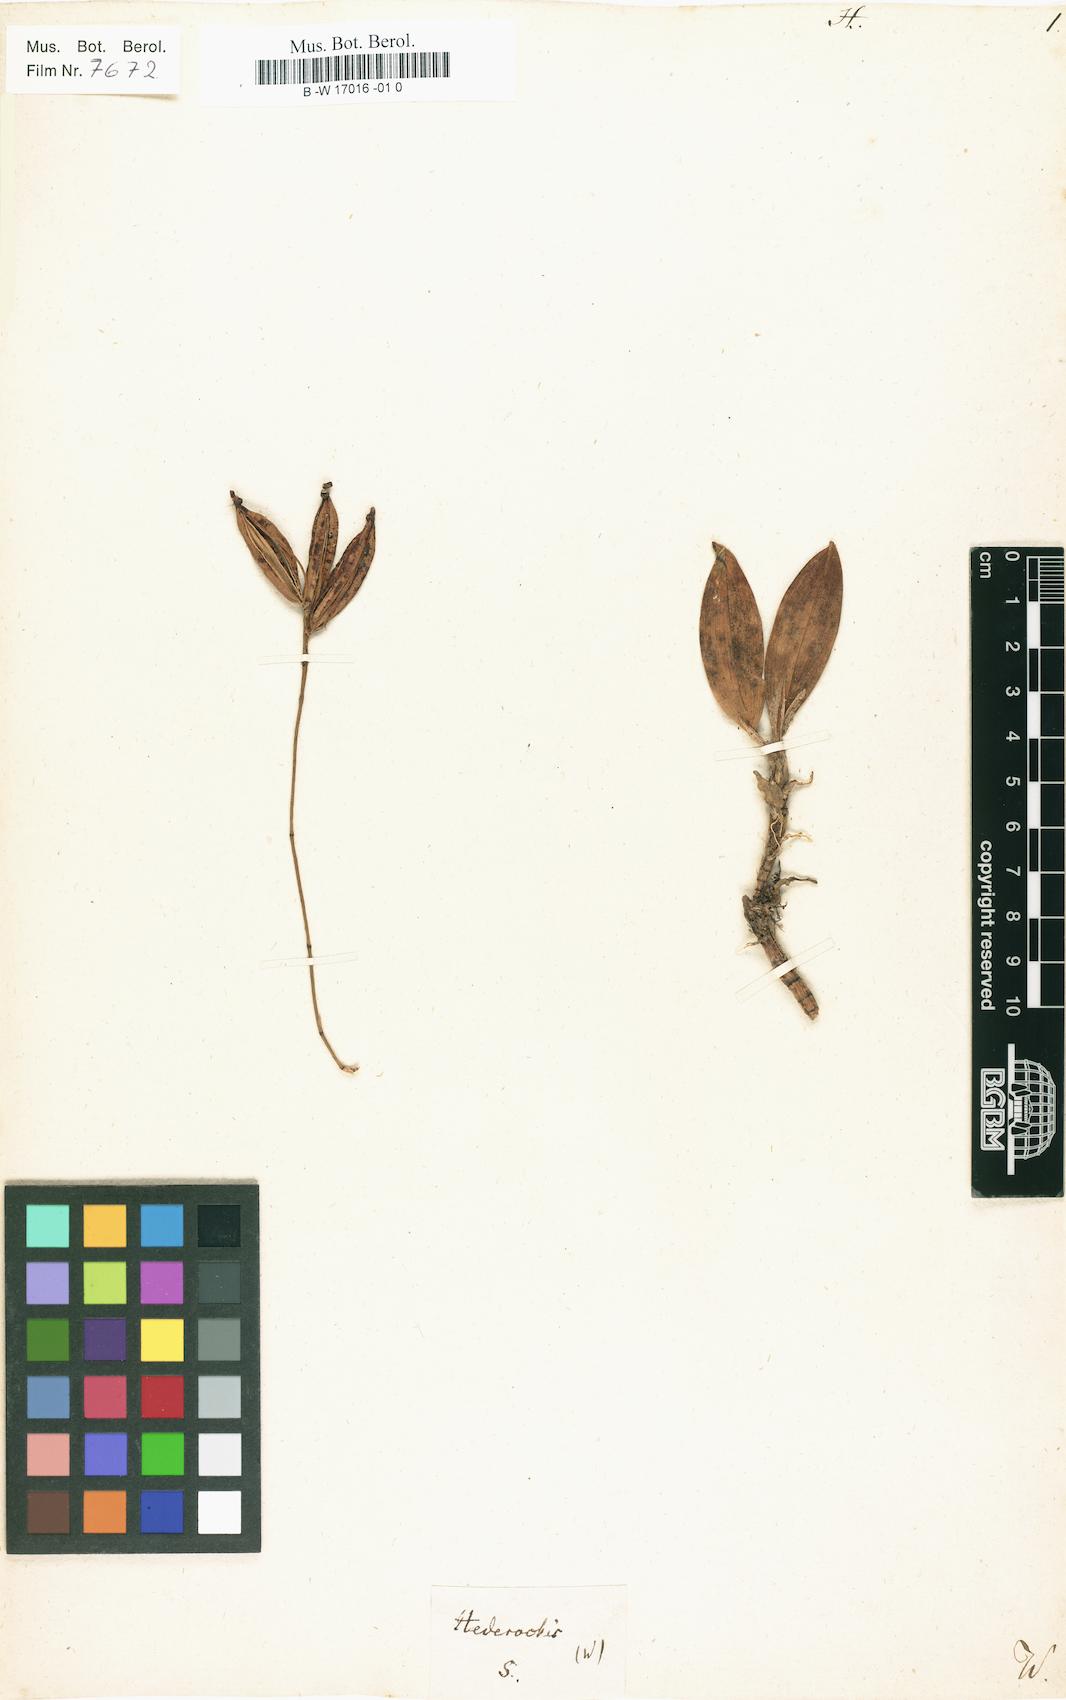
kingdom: Plantae
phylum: Tracheophyta
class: Liliopsida
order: Asparagales
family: Orchidaceae
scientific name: Orchidaceae
